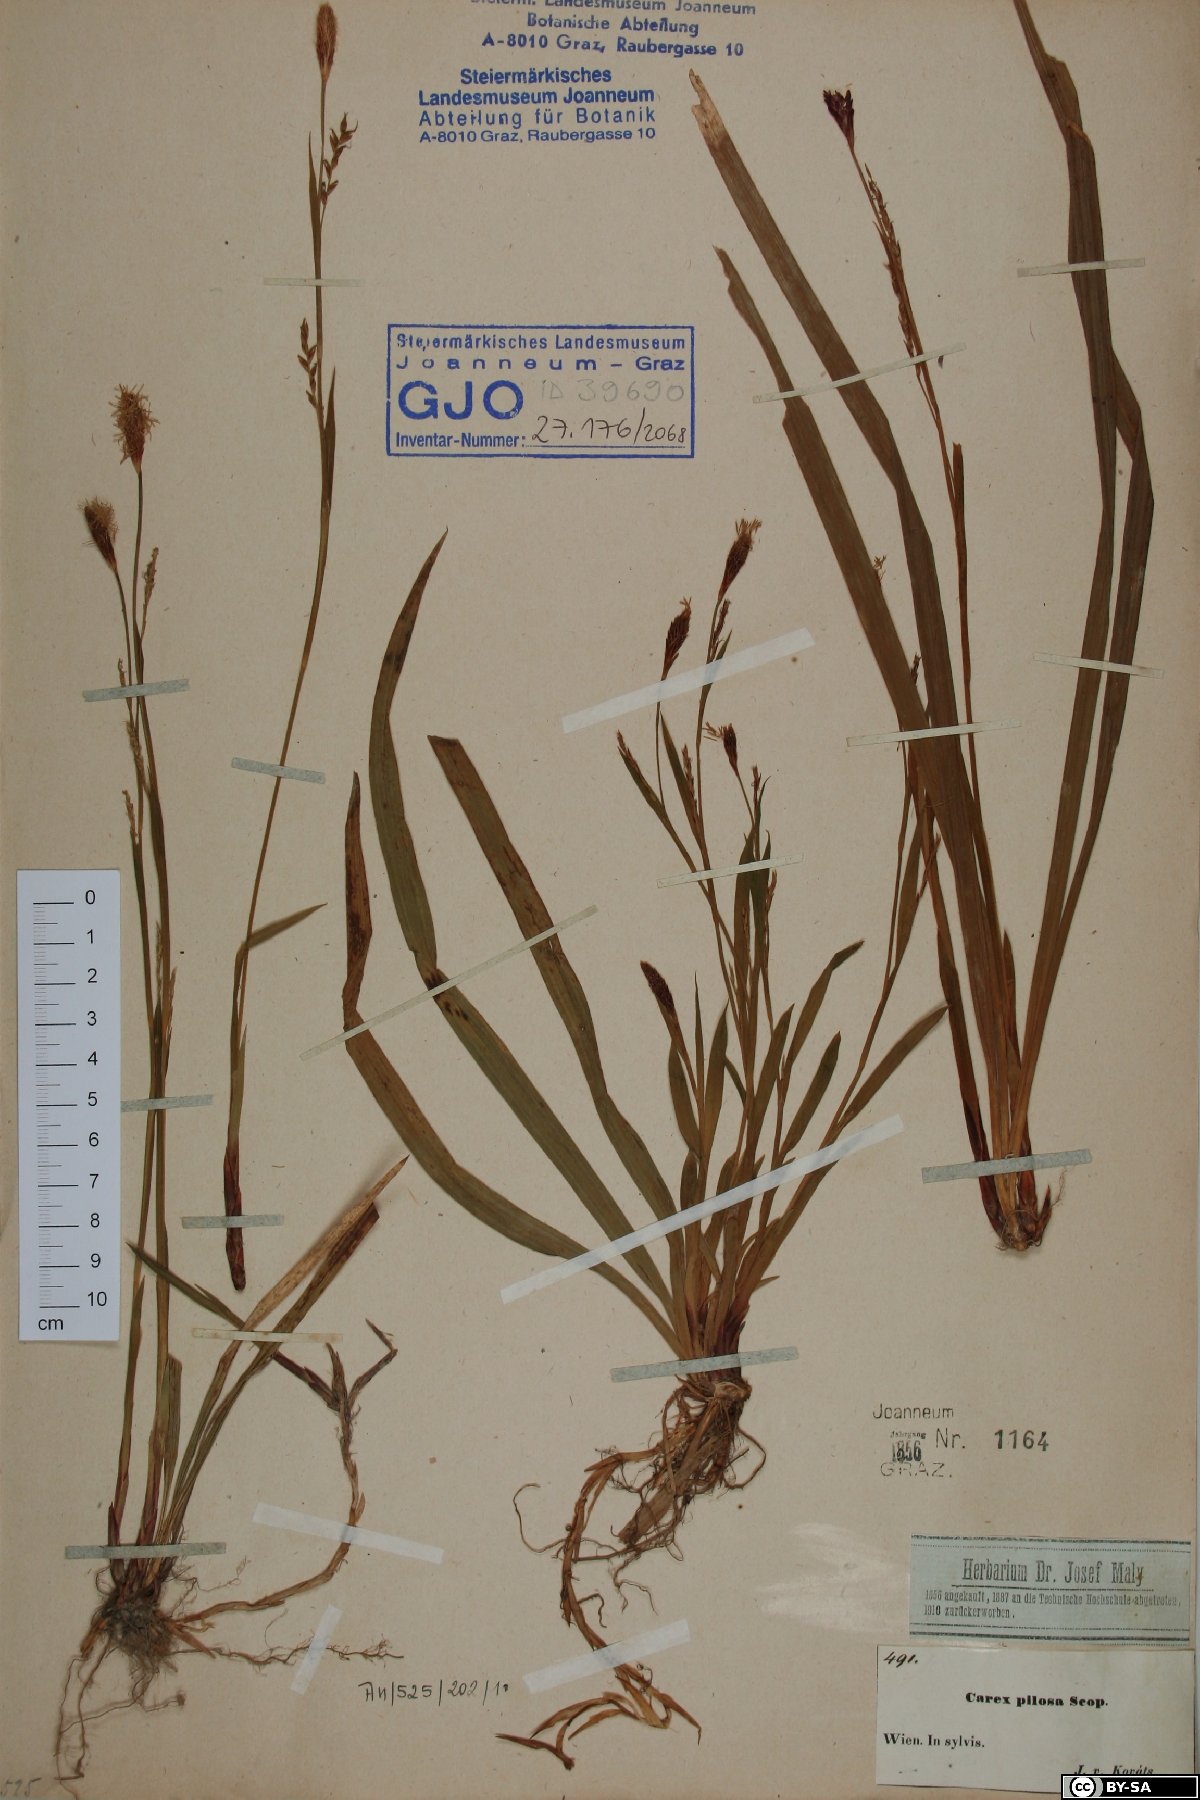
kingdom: Plantae
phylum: Tracheophyta
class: Liliopsida
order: Poales
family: Cyperaceae
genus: Carex
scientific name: Carex pilosa
